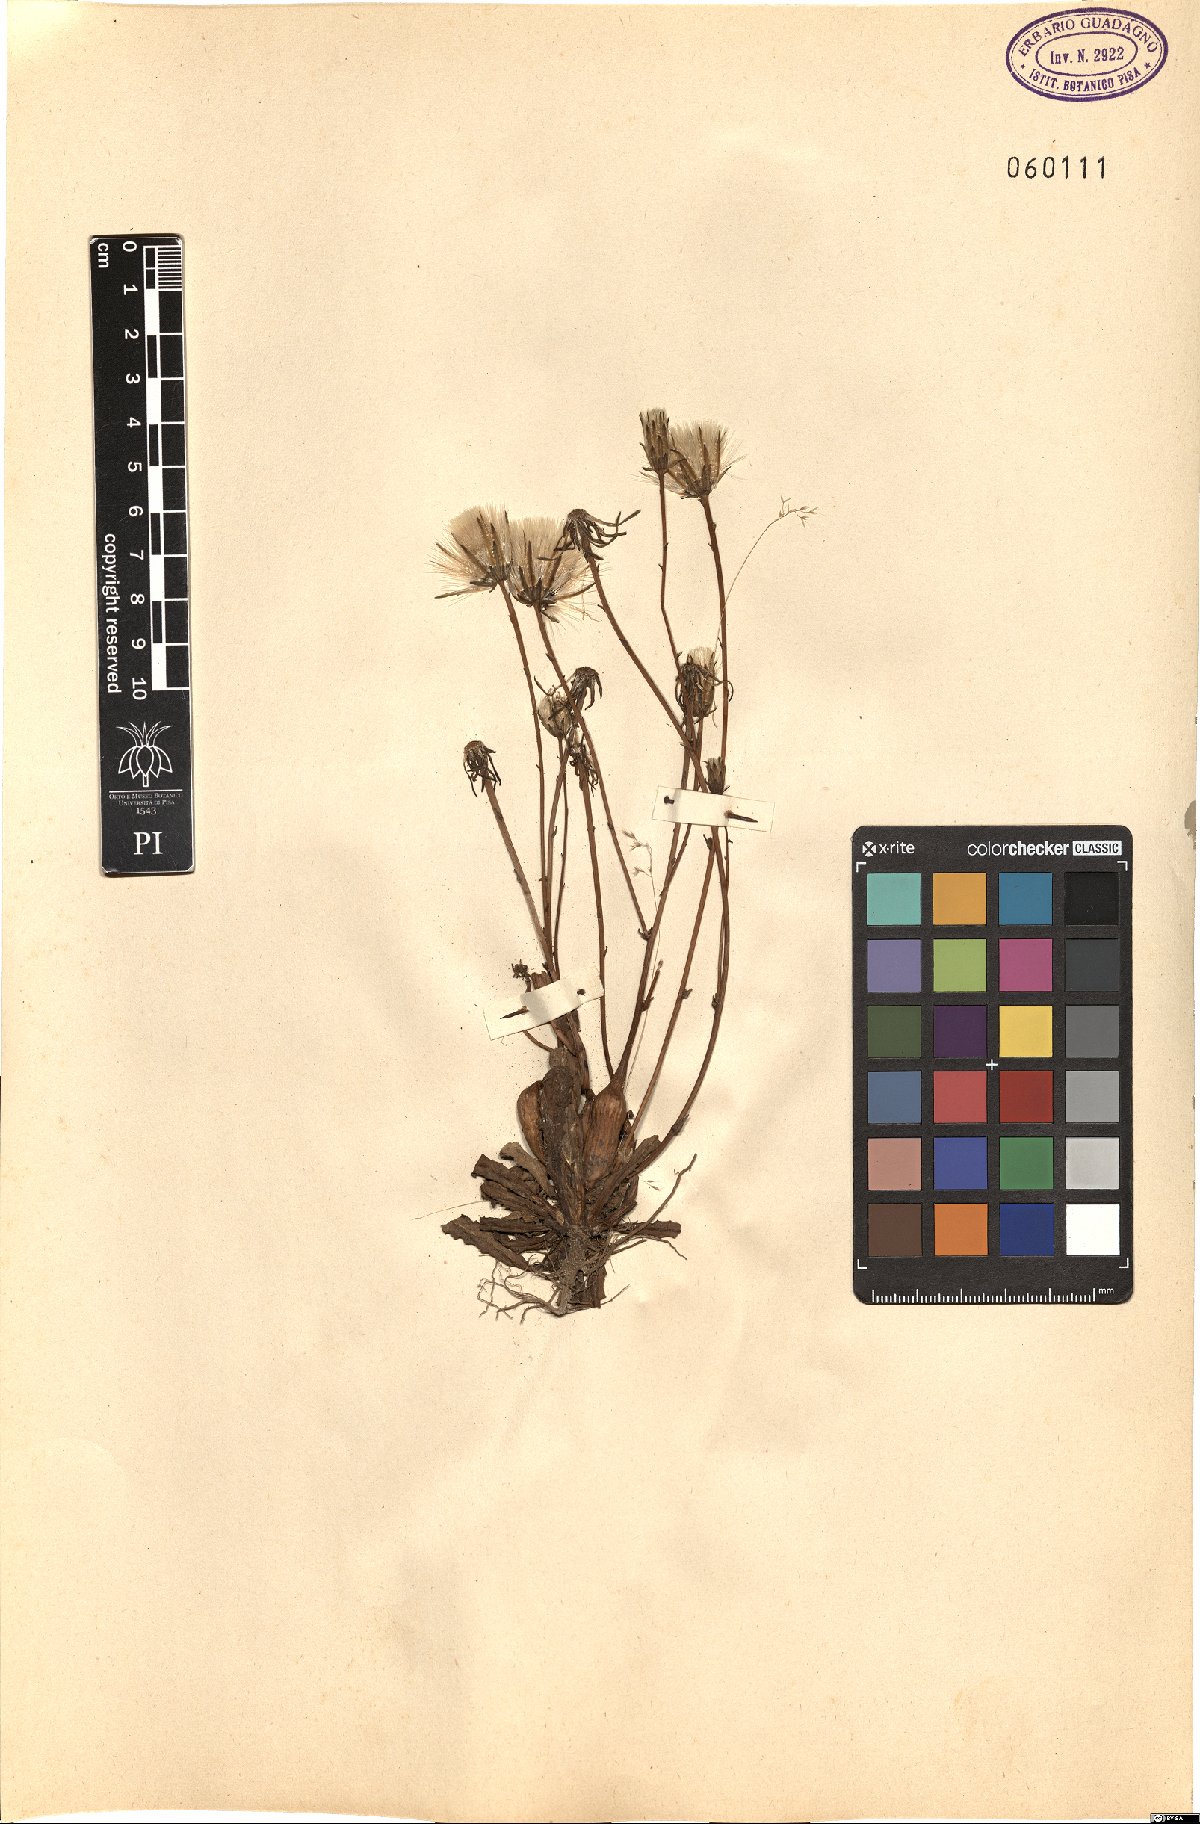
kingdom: Plantae
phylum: Tracheophyta
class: Magnoliopsida
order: Asterales
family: Asteraceae
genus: Hypochaeris
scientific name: Hypochaeris radicata
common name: Flatweed
